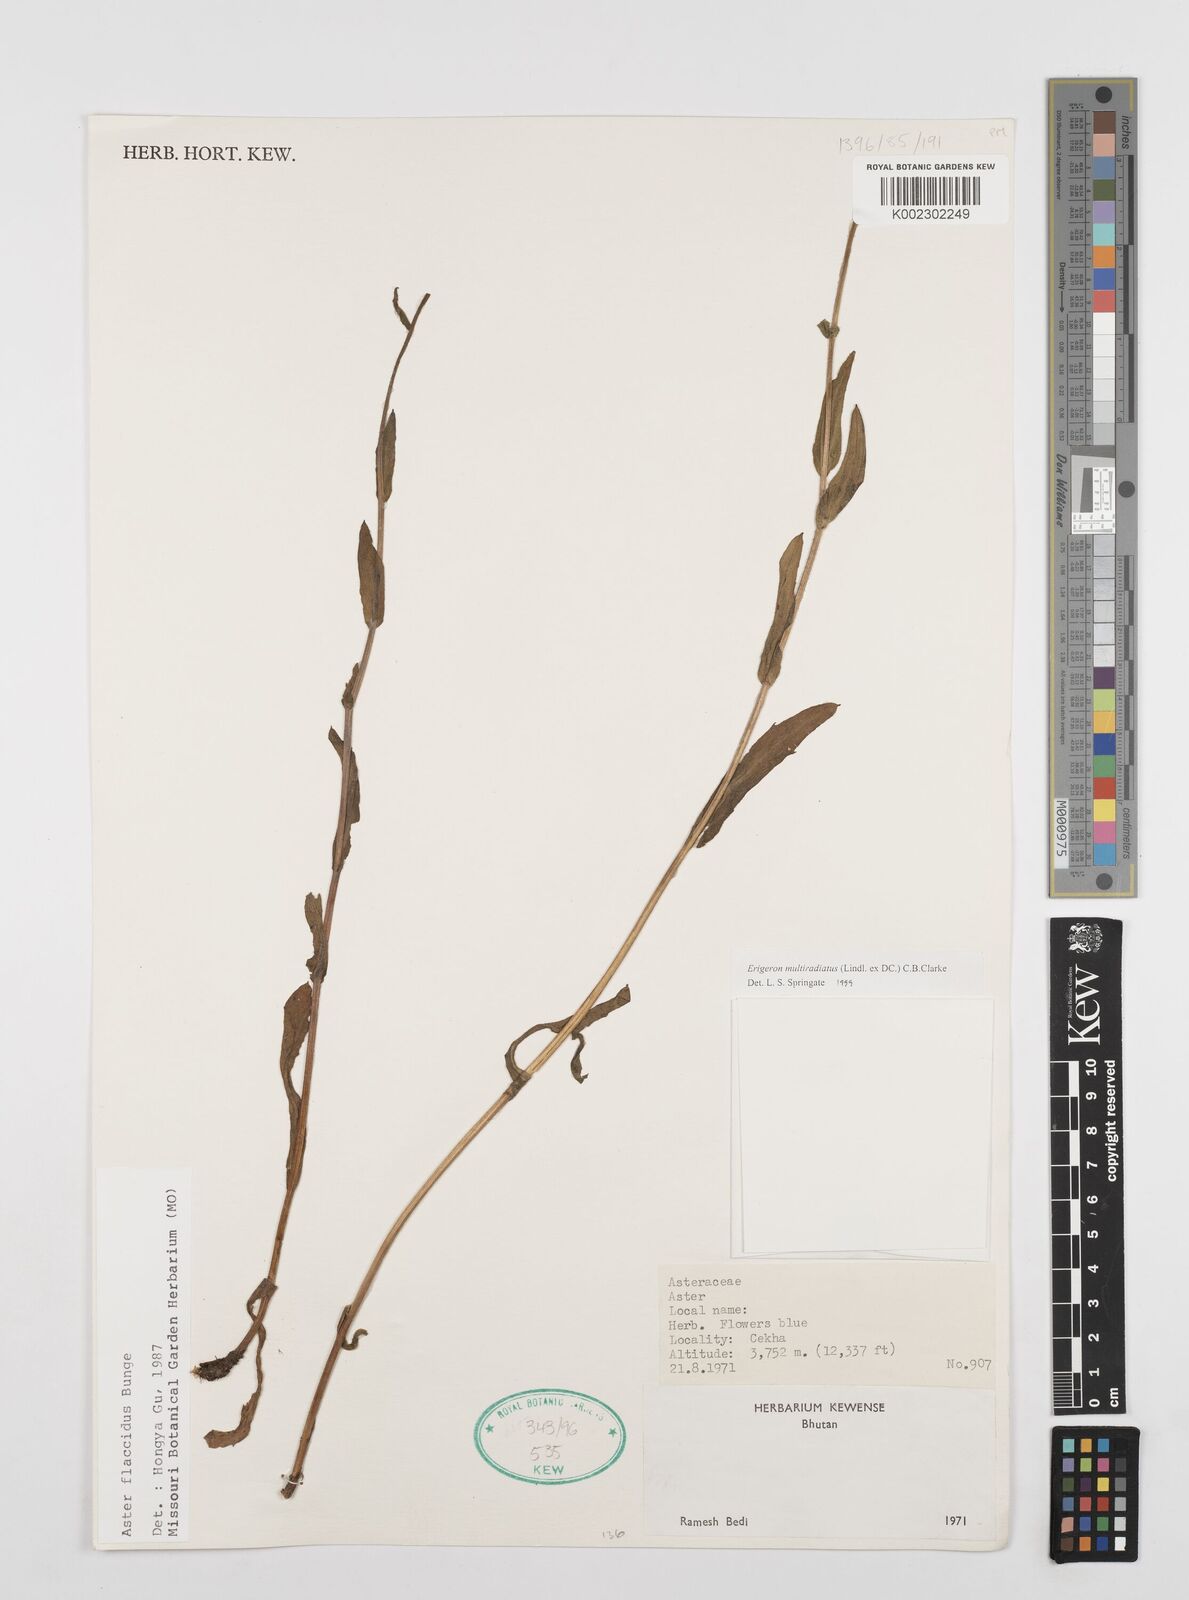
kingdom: Plantae
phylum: Tracheophyta
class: Magnoliopsida
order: Asterales
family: Asteraceae
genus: Erigeron
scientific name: Erigeron multiradiatus
